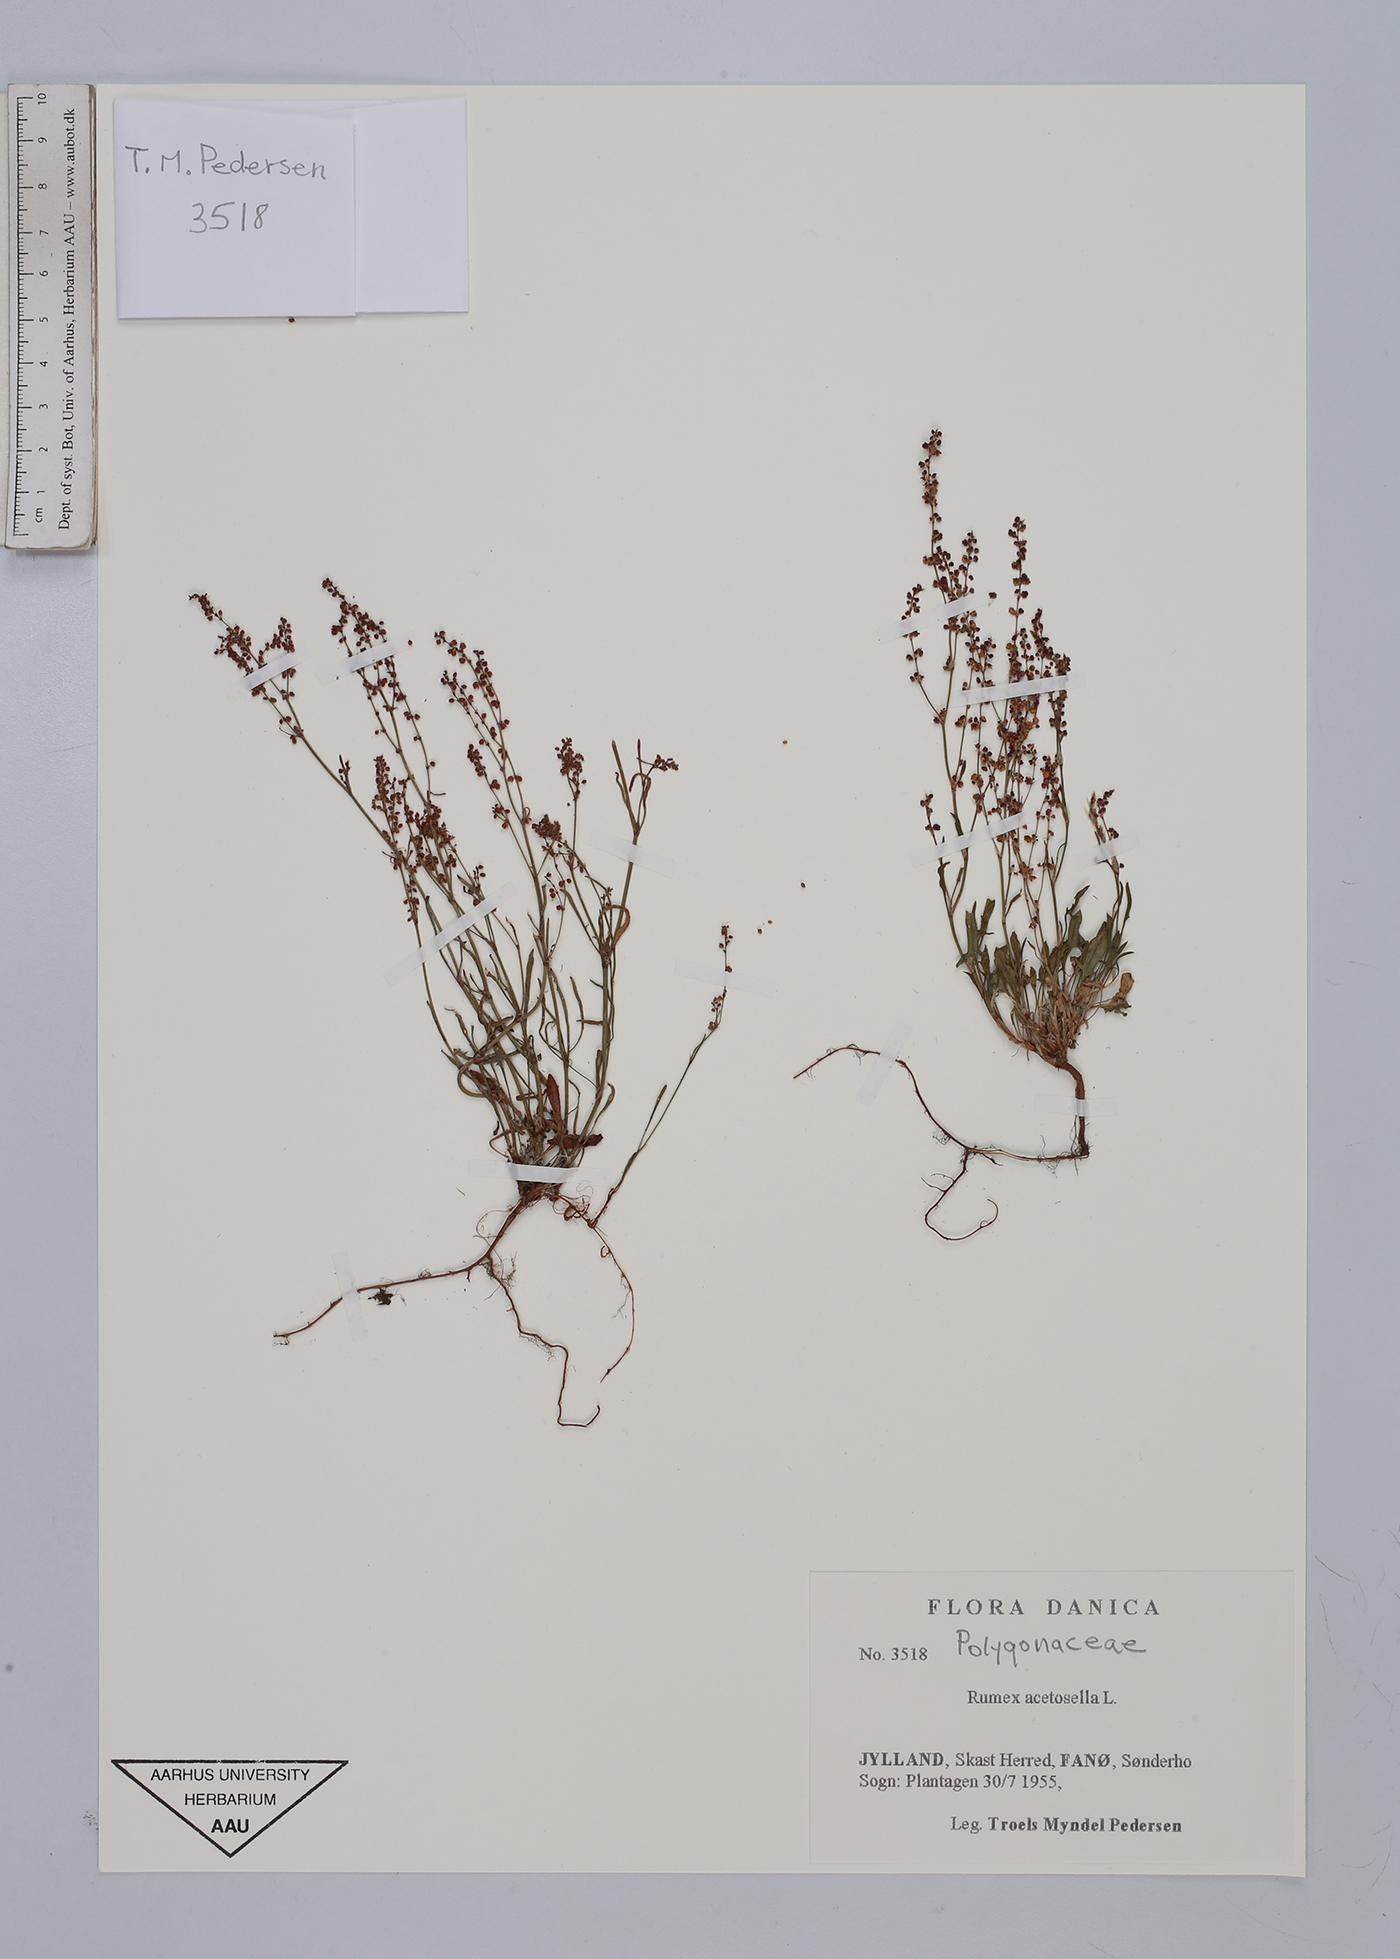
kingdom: Plantae
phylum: Tracheophyta
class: Magnoliopsida
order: Caryophyllales
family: Polygonaceae
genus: Rumex
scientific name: Rumex acetosella
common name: Common sheep sorrel
